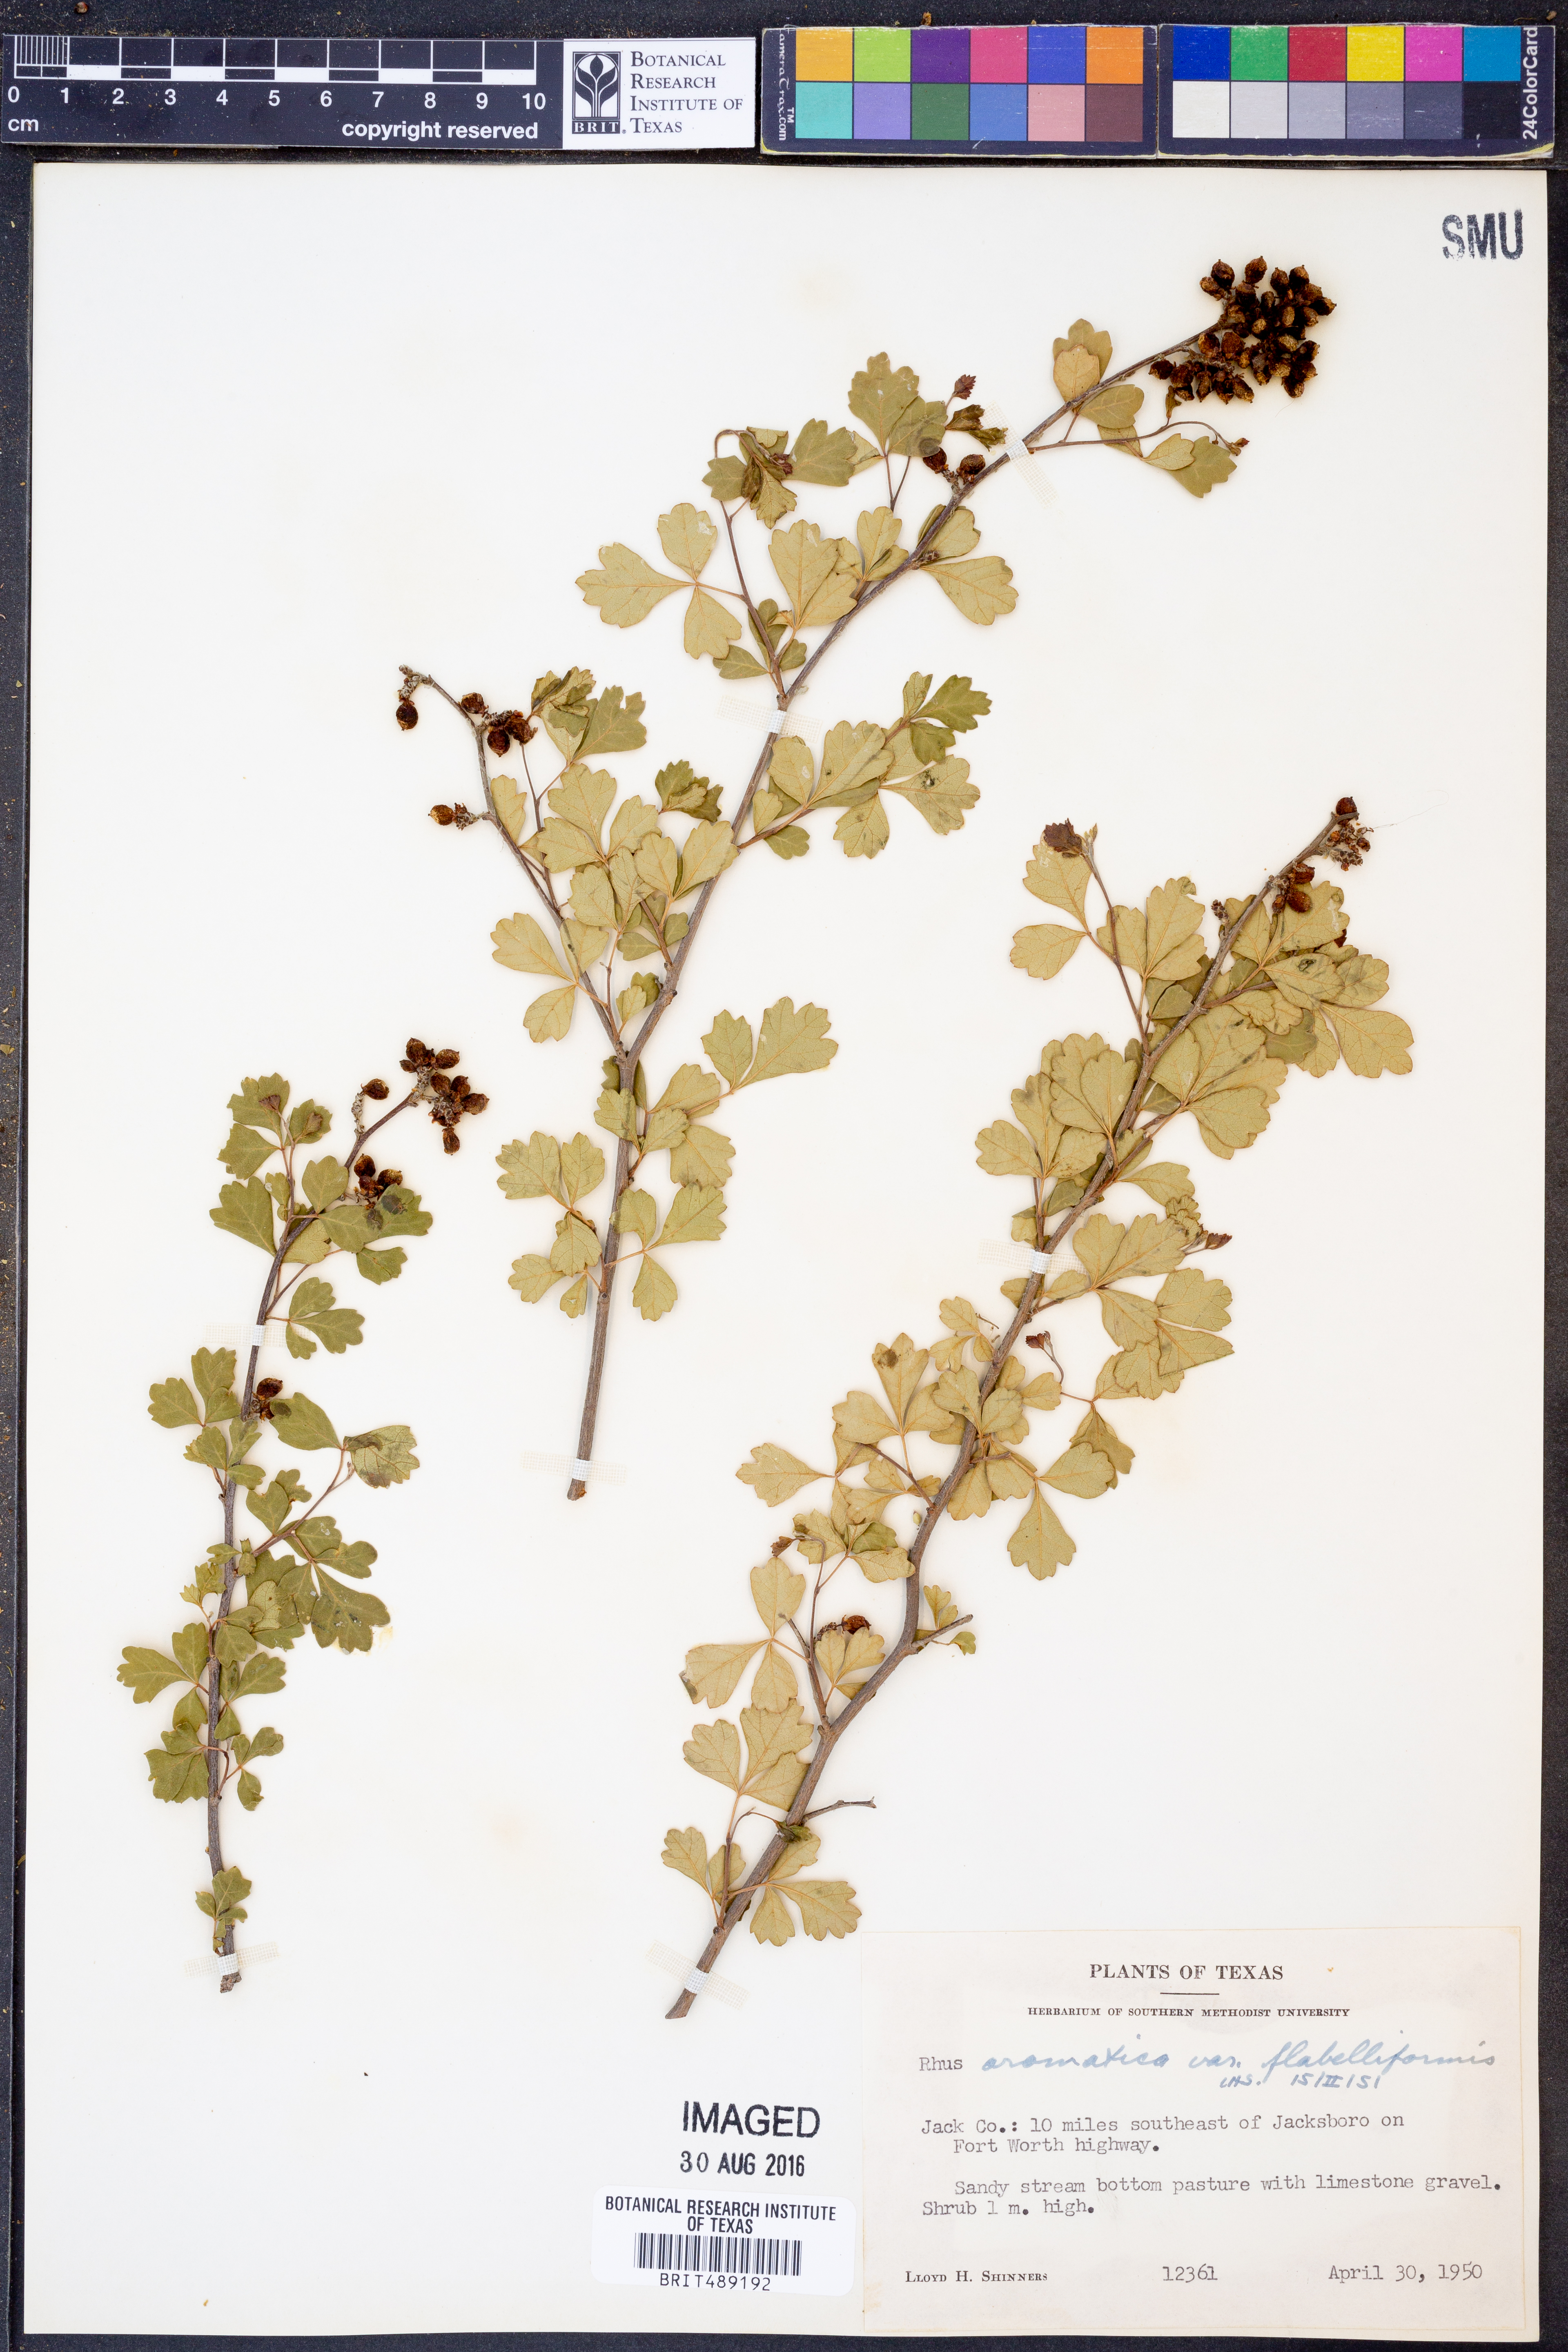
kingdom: Plantae
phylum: Tracheophyta
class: Magnoliopsida
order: Sapindales
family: Anacardiaceae
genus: Rhus
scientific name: Rhus trilobata
